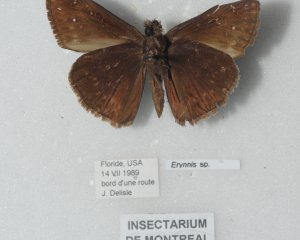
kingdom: Animalia
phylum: Arthropoda
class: Insecta
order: Lepidoptera
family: Hesperiidae
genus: Gesta
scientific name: Gesta
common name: Juvenal's Duskywing
